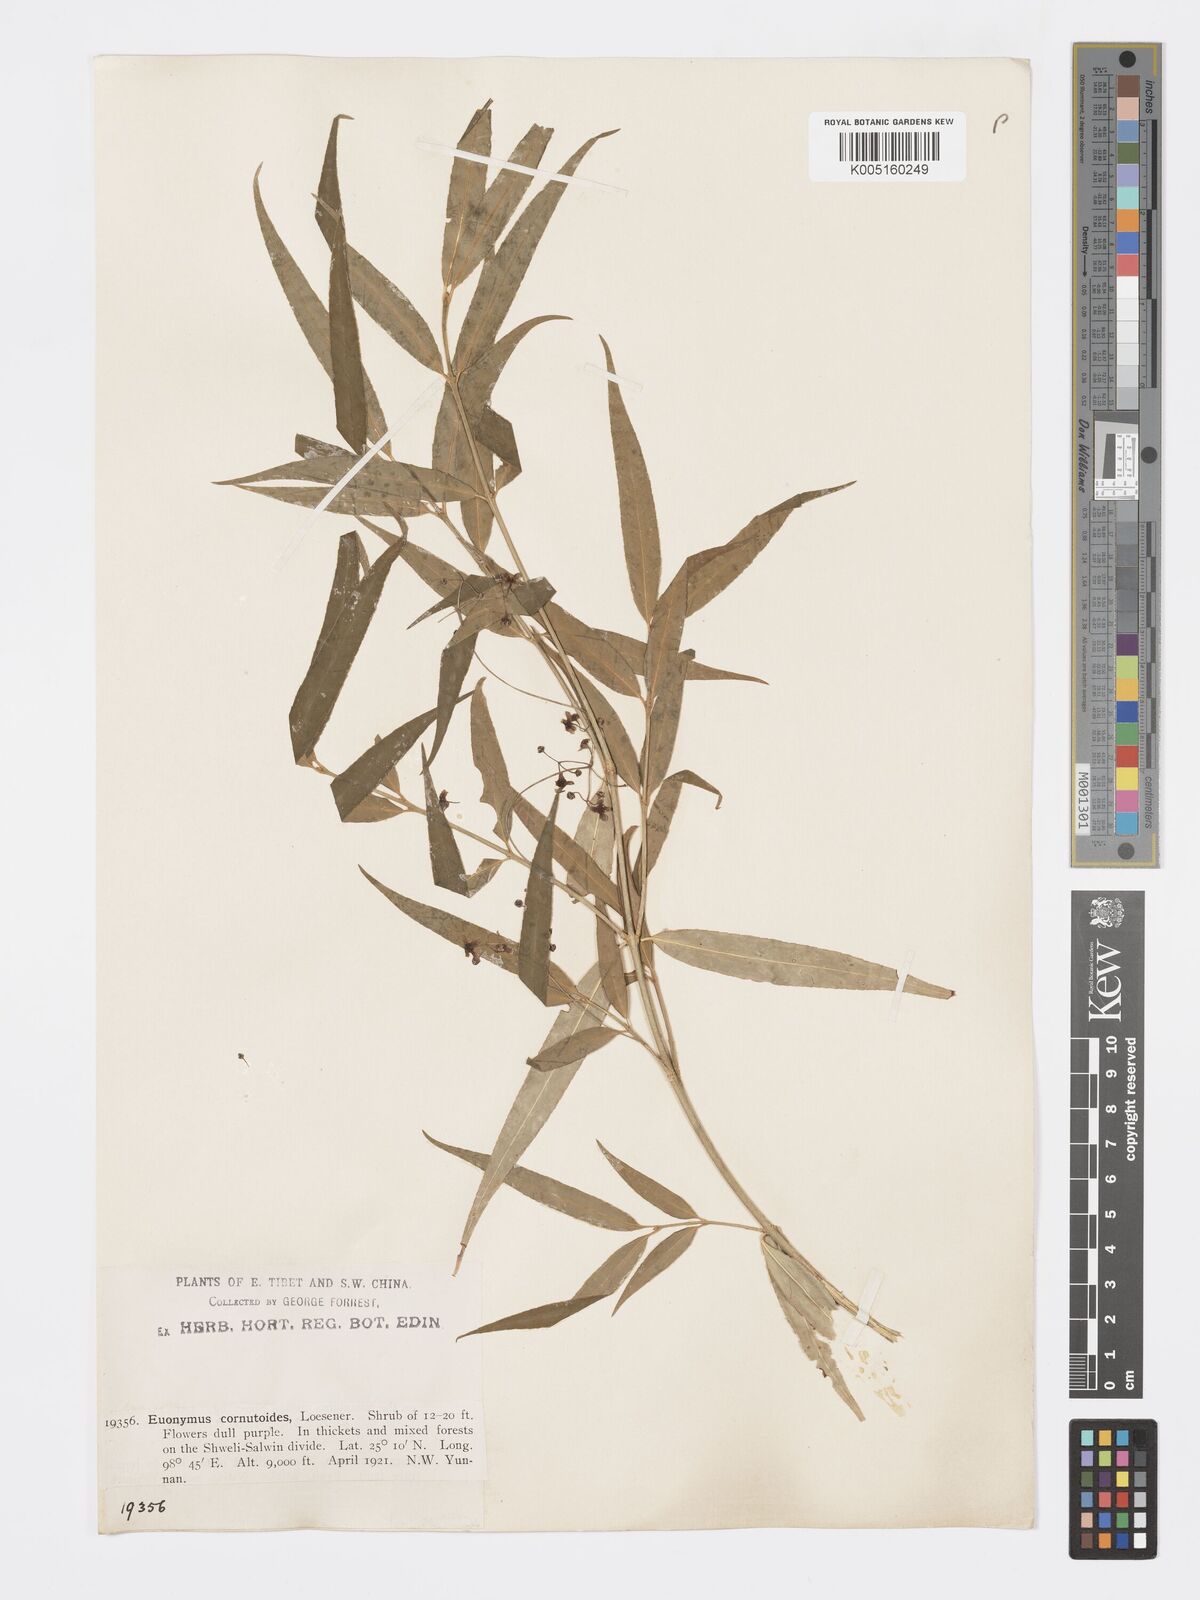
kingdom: Plantae
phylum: Tracheophyta
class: Magnoliopsida
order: Celastrales
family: Celastraceae
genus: Euonymus
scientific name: Euonymus cornutus
